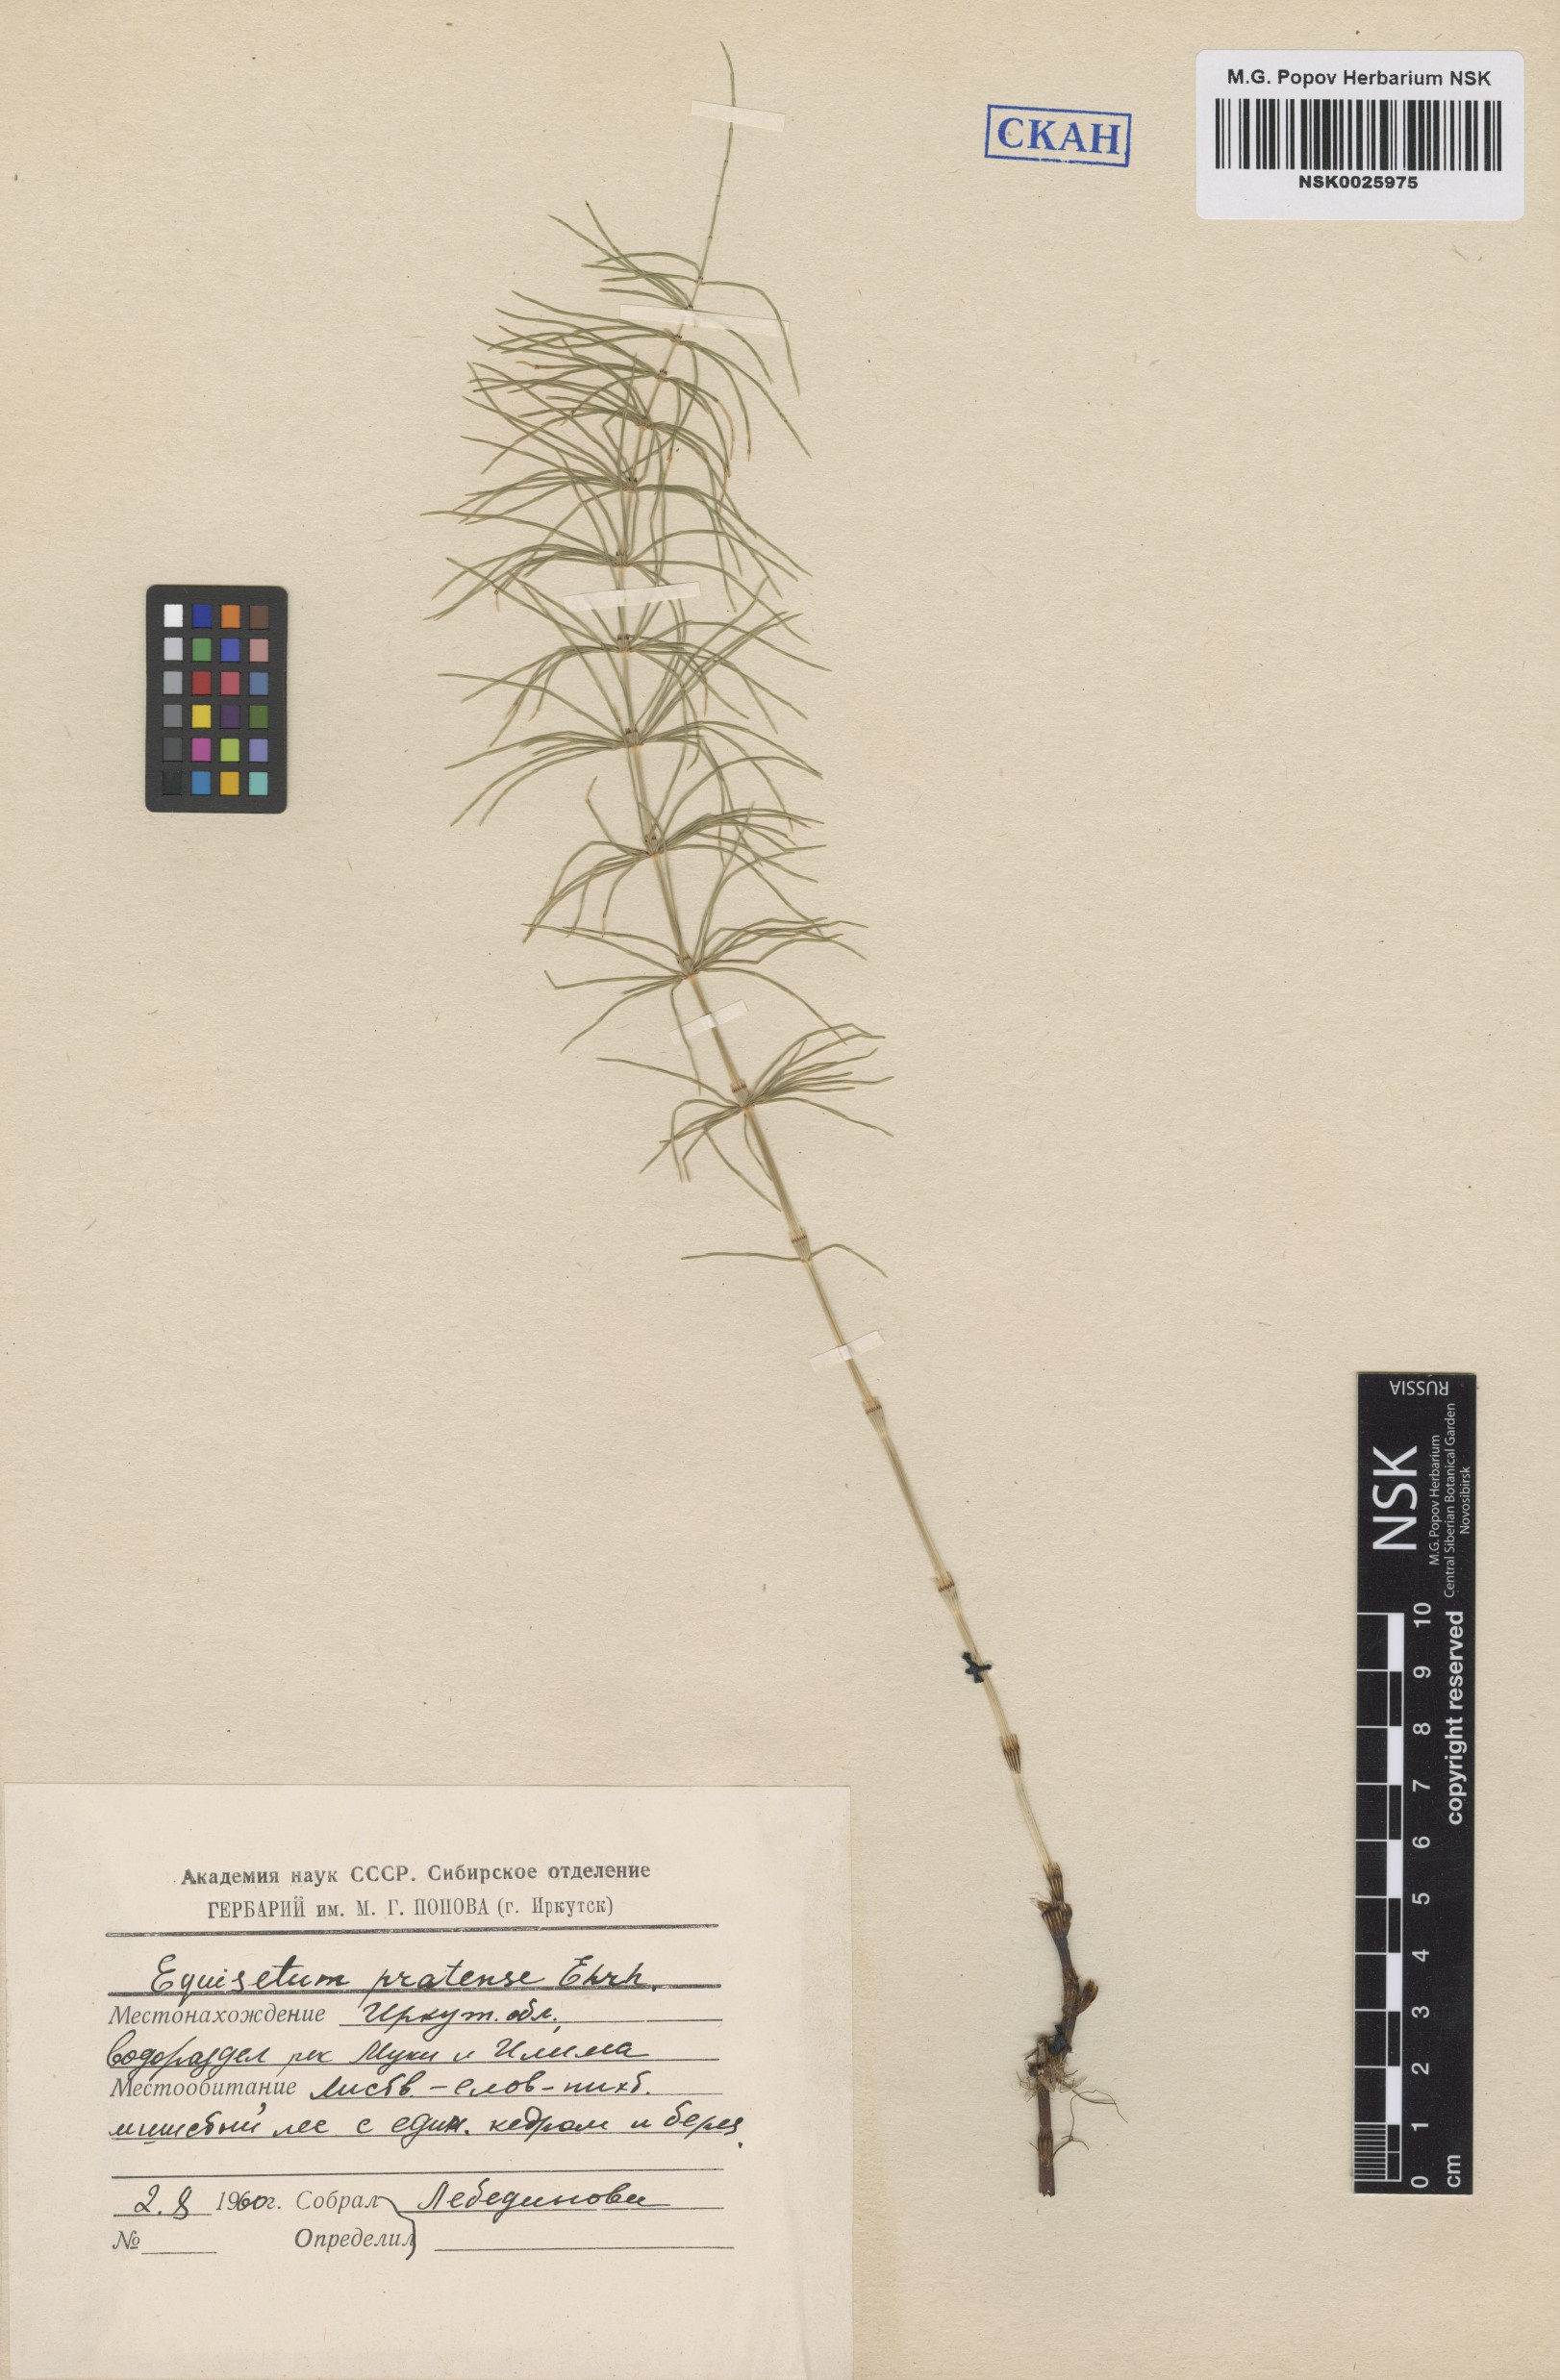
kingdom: Plantae
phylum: Tracheophyta
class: Polypodiopsida
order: Equisetales
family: Equisetaceae
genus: Equisetum
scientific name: Equisetum pratense
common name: Meadow horsetail
